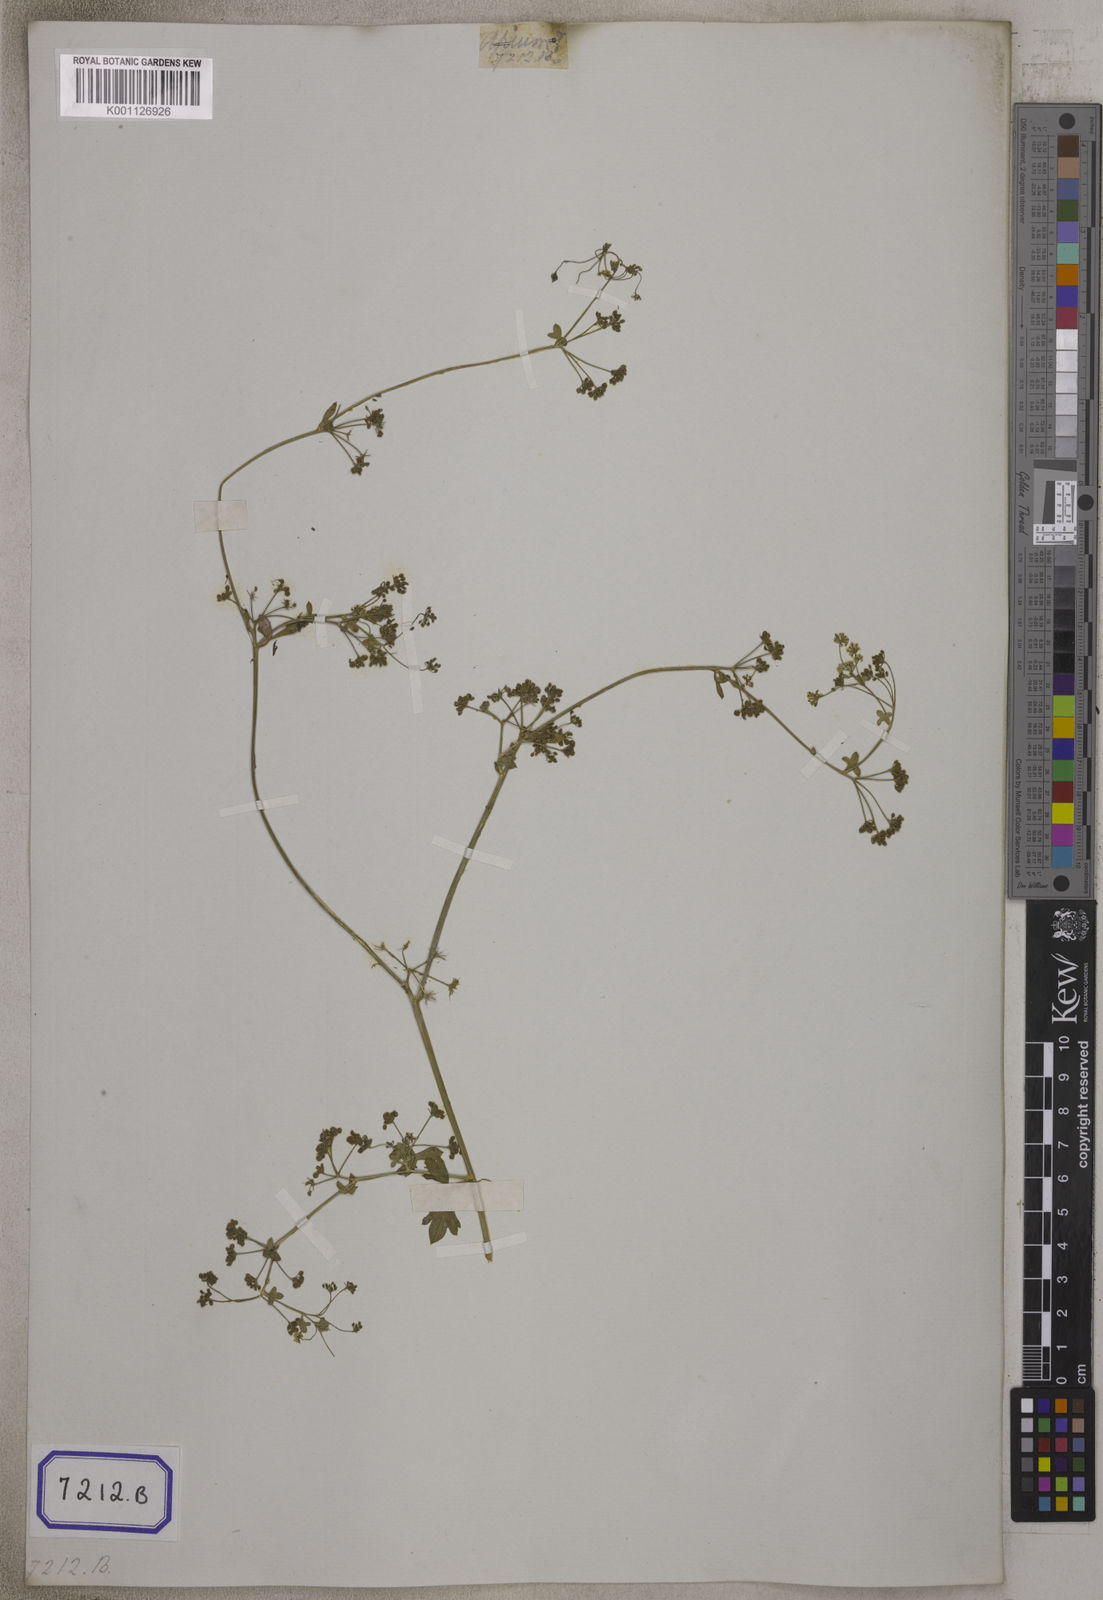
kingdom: Plantae
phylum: Tracheophyta
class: Magnoliopsida
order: Apiales
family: Apiaceae
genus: Apium
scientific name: Apium graveolens
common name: Wild celery
